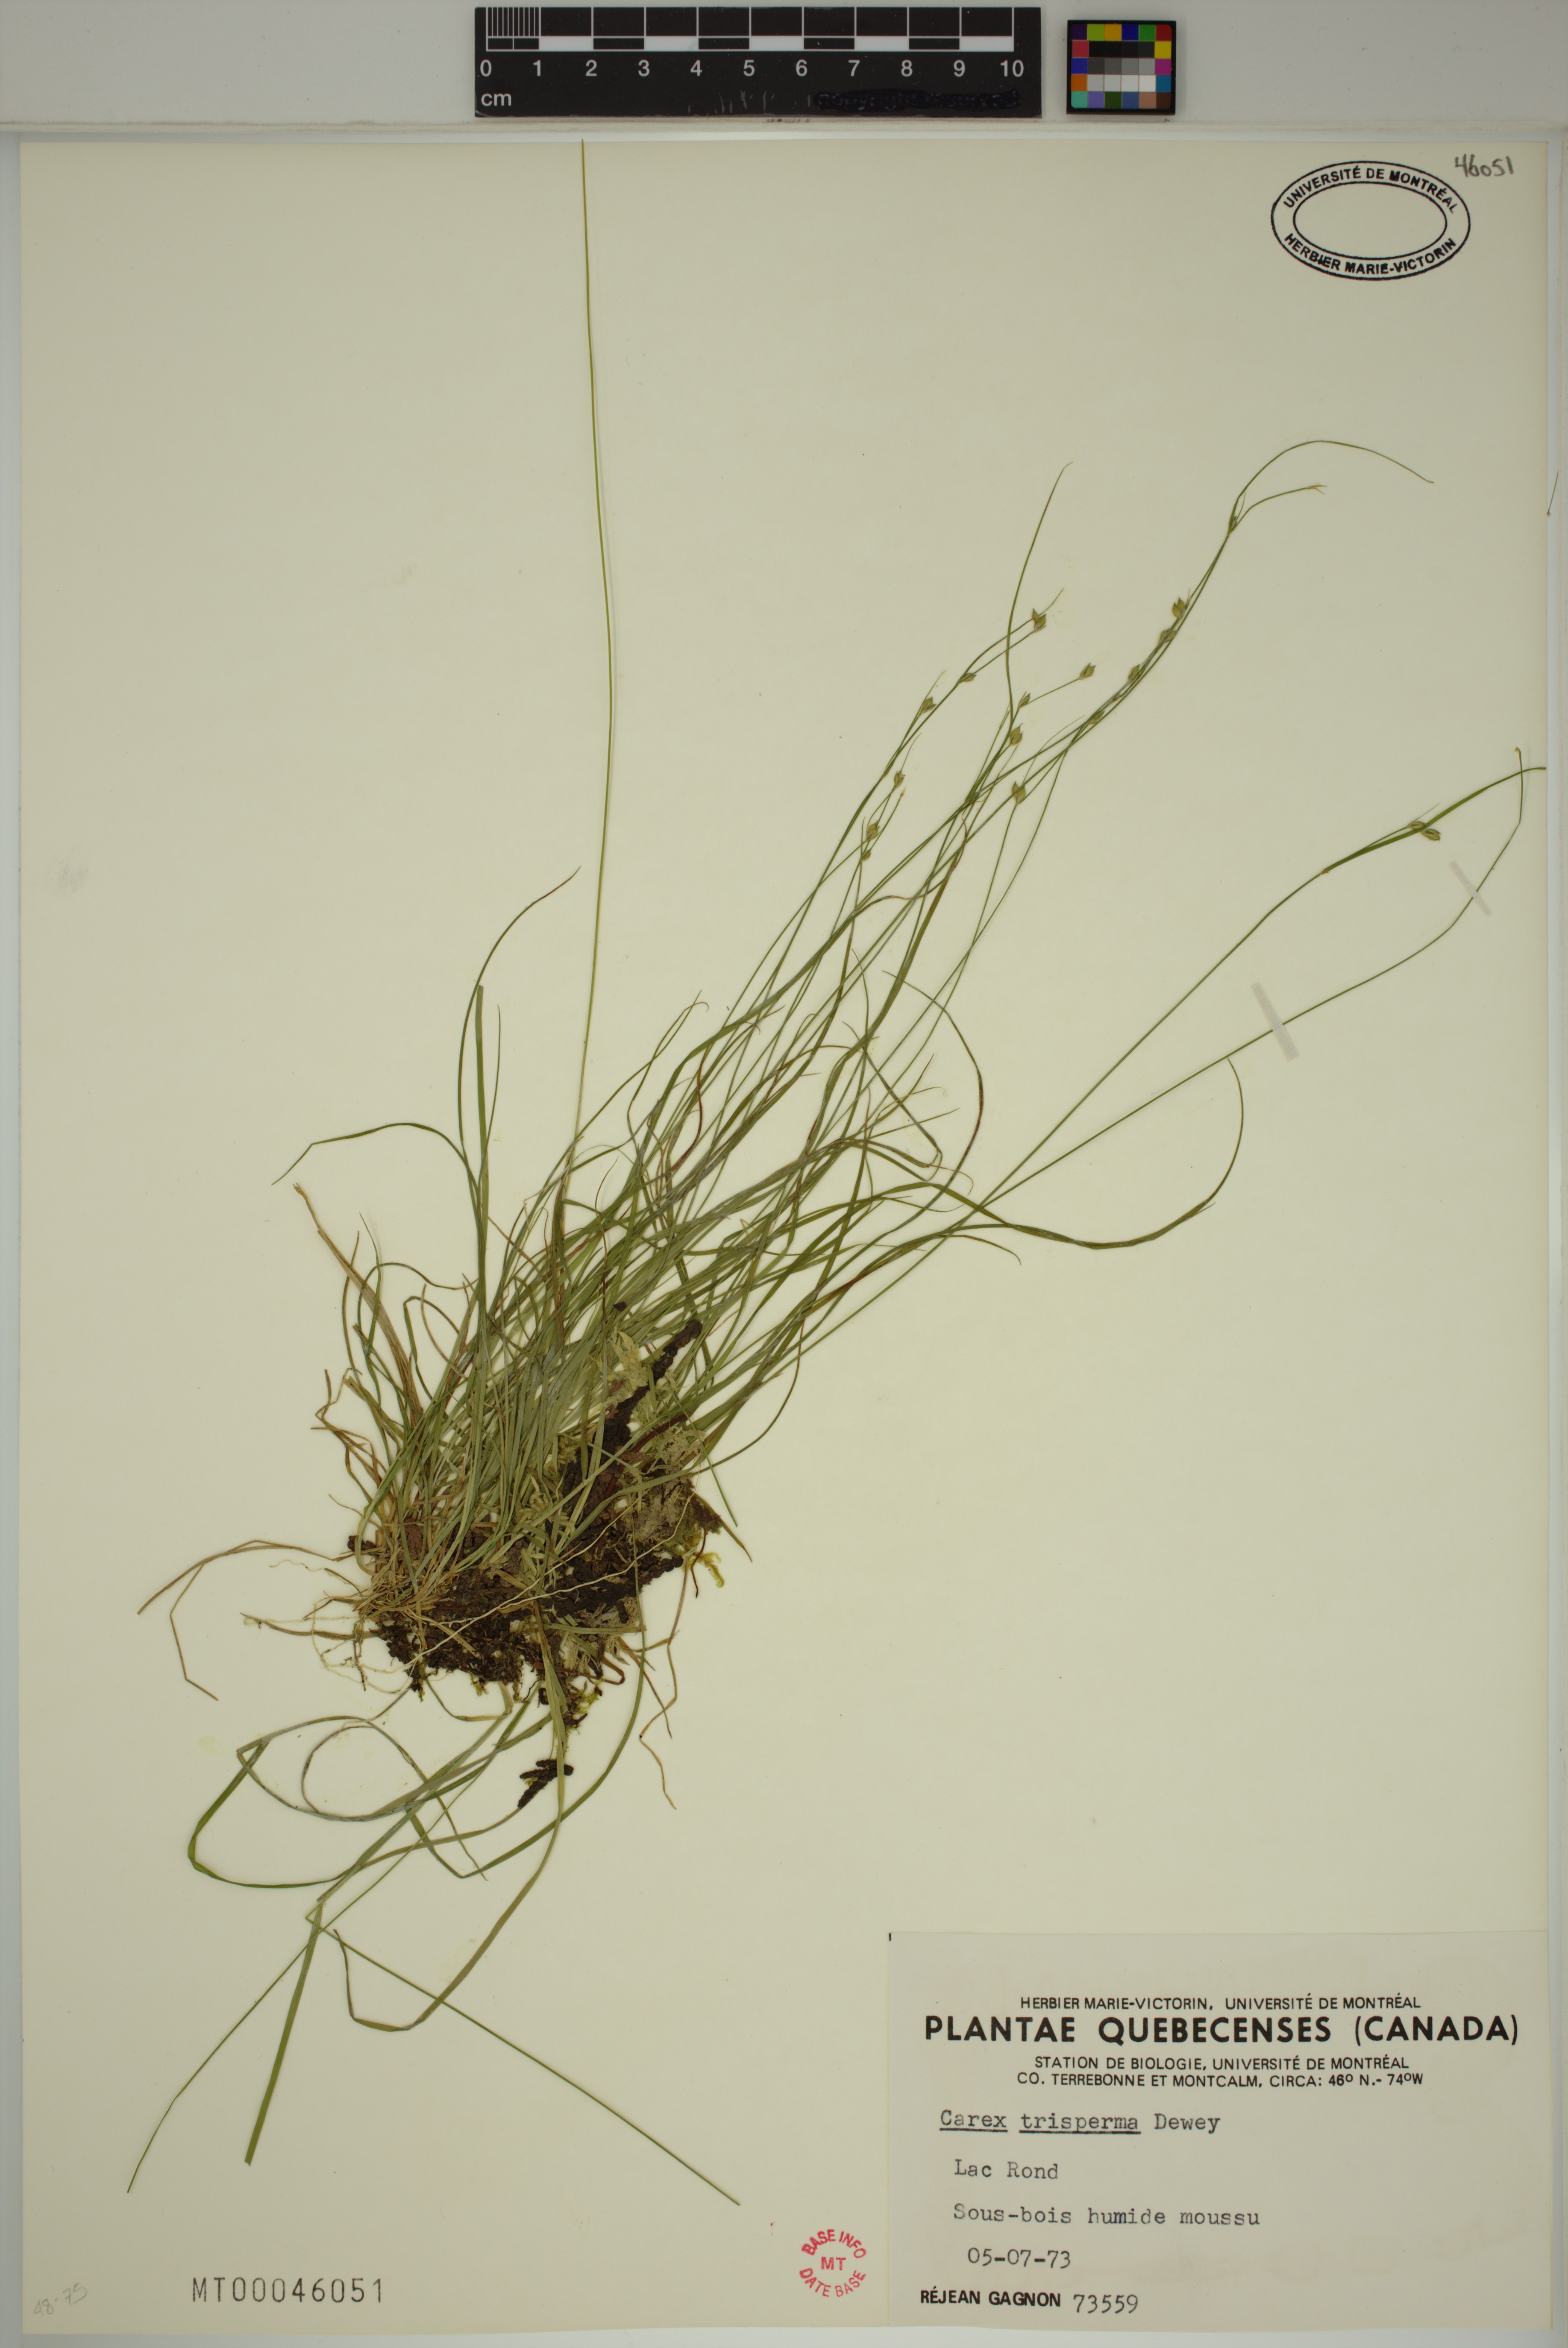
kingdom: Plantae
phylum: Tracheophyta
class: Liliopsida
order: Poales
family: Cyperaceae
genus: Carex
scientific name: Carex trisperma
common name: Three-seeded sedge
